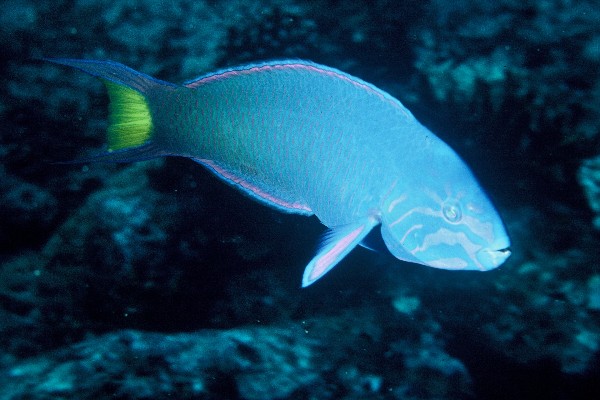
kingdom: Animalia
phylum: Chordata
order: Perciformes
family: Labridae
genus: Thalassoma
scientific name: Thalassoma lunare
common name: Blue wrasse
